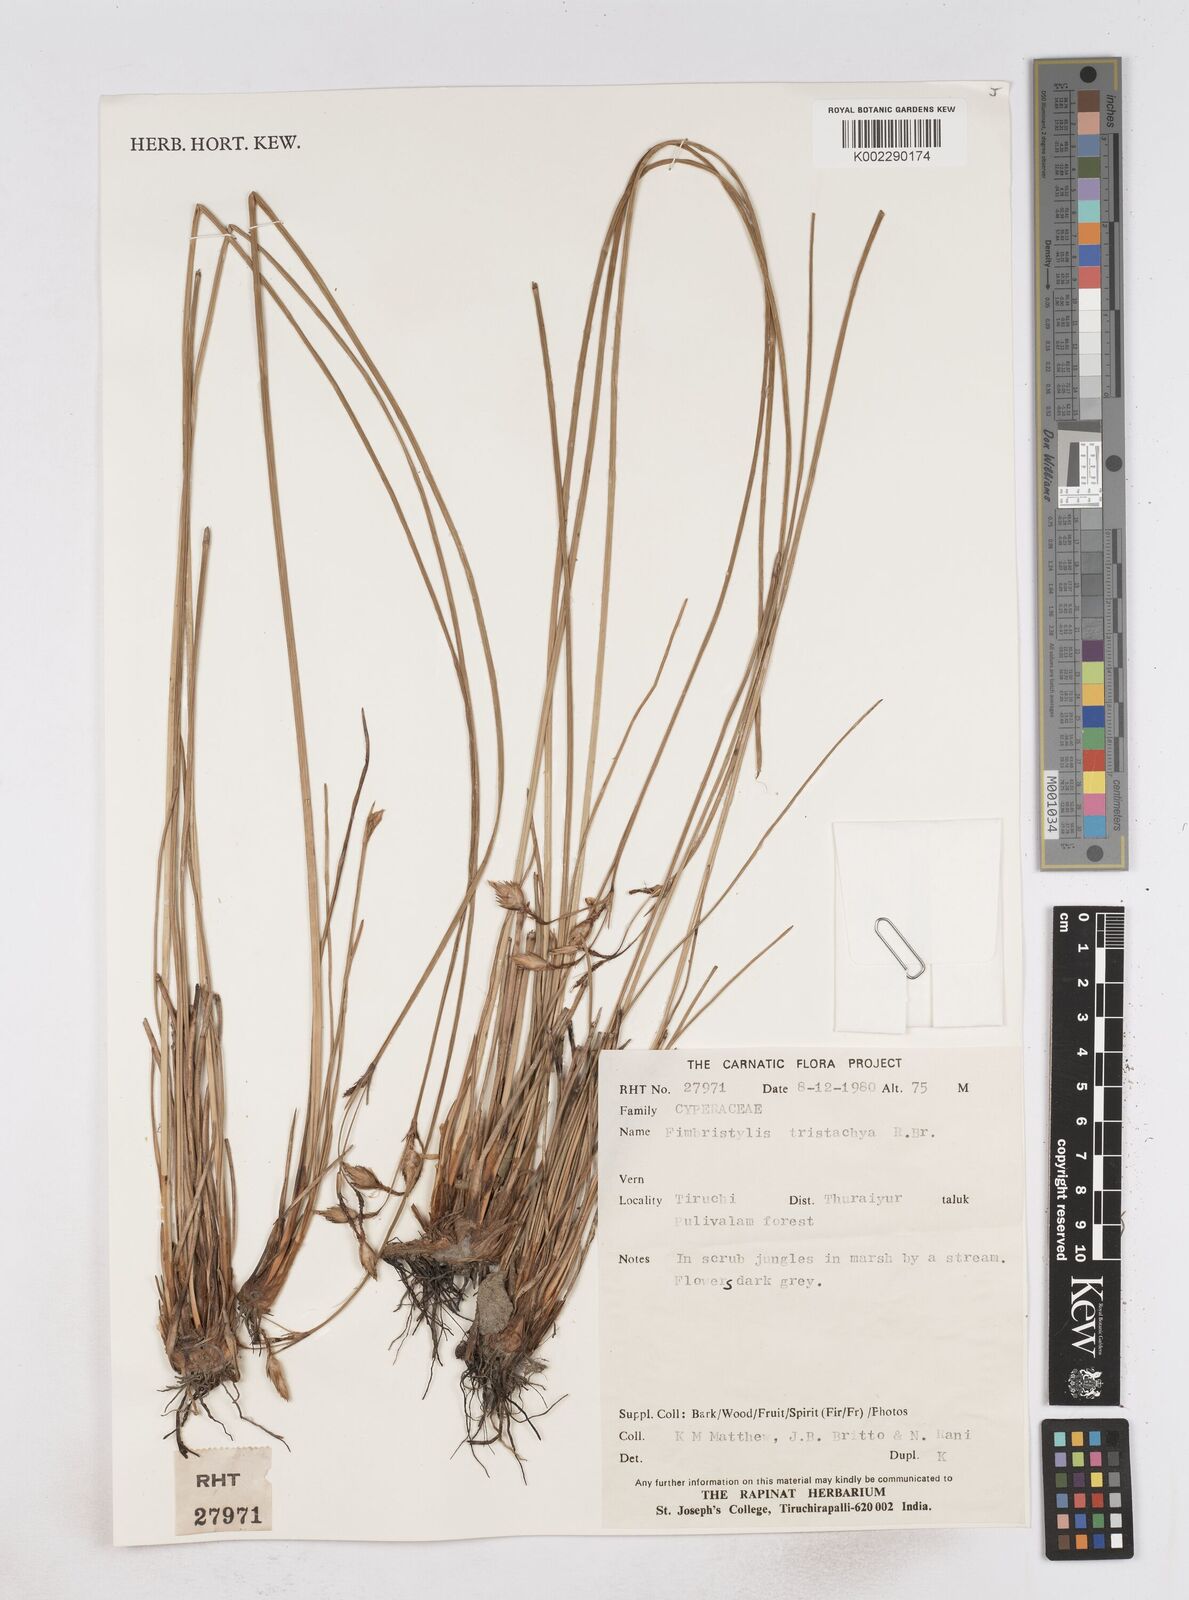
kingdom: Plantae
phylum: Tracheophyta
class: Liliopsida
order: Poales
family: Cyperaceae
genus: Fimbristylis
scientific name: Fimbristylis tristachya
